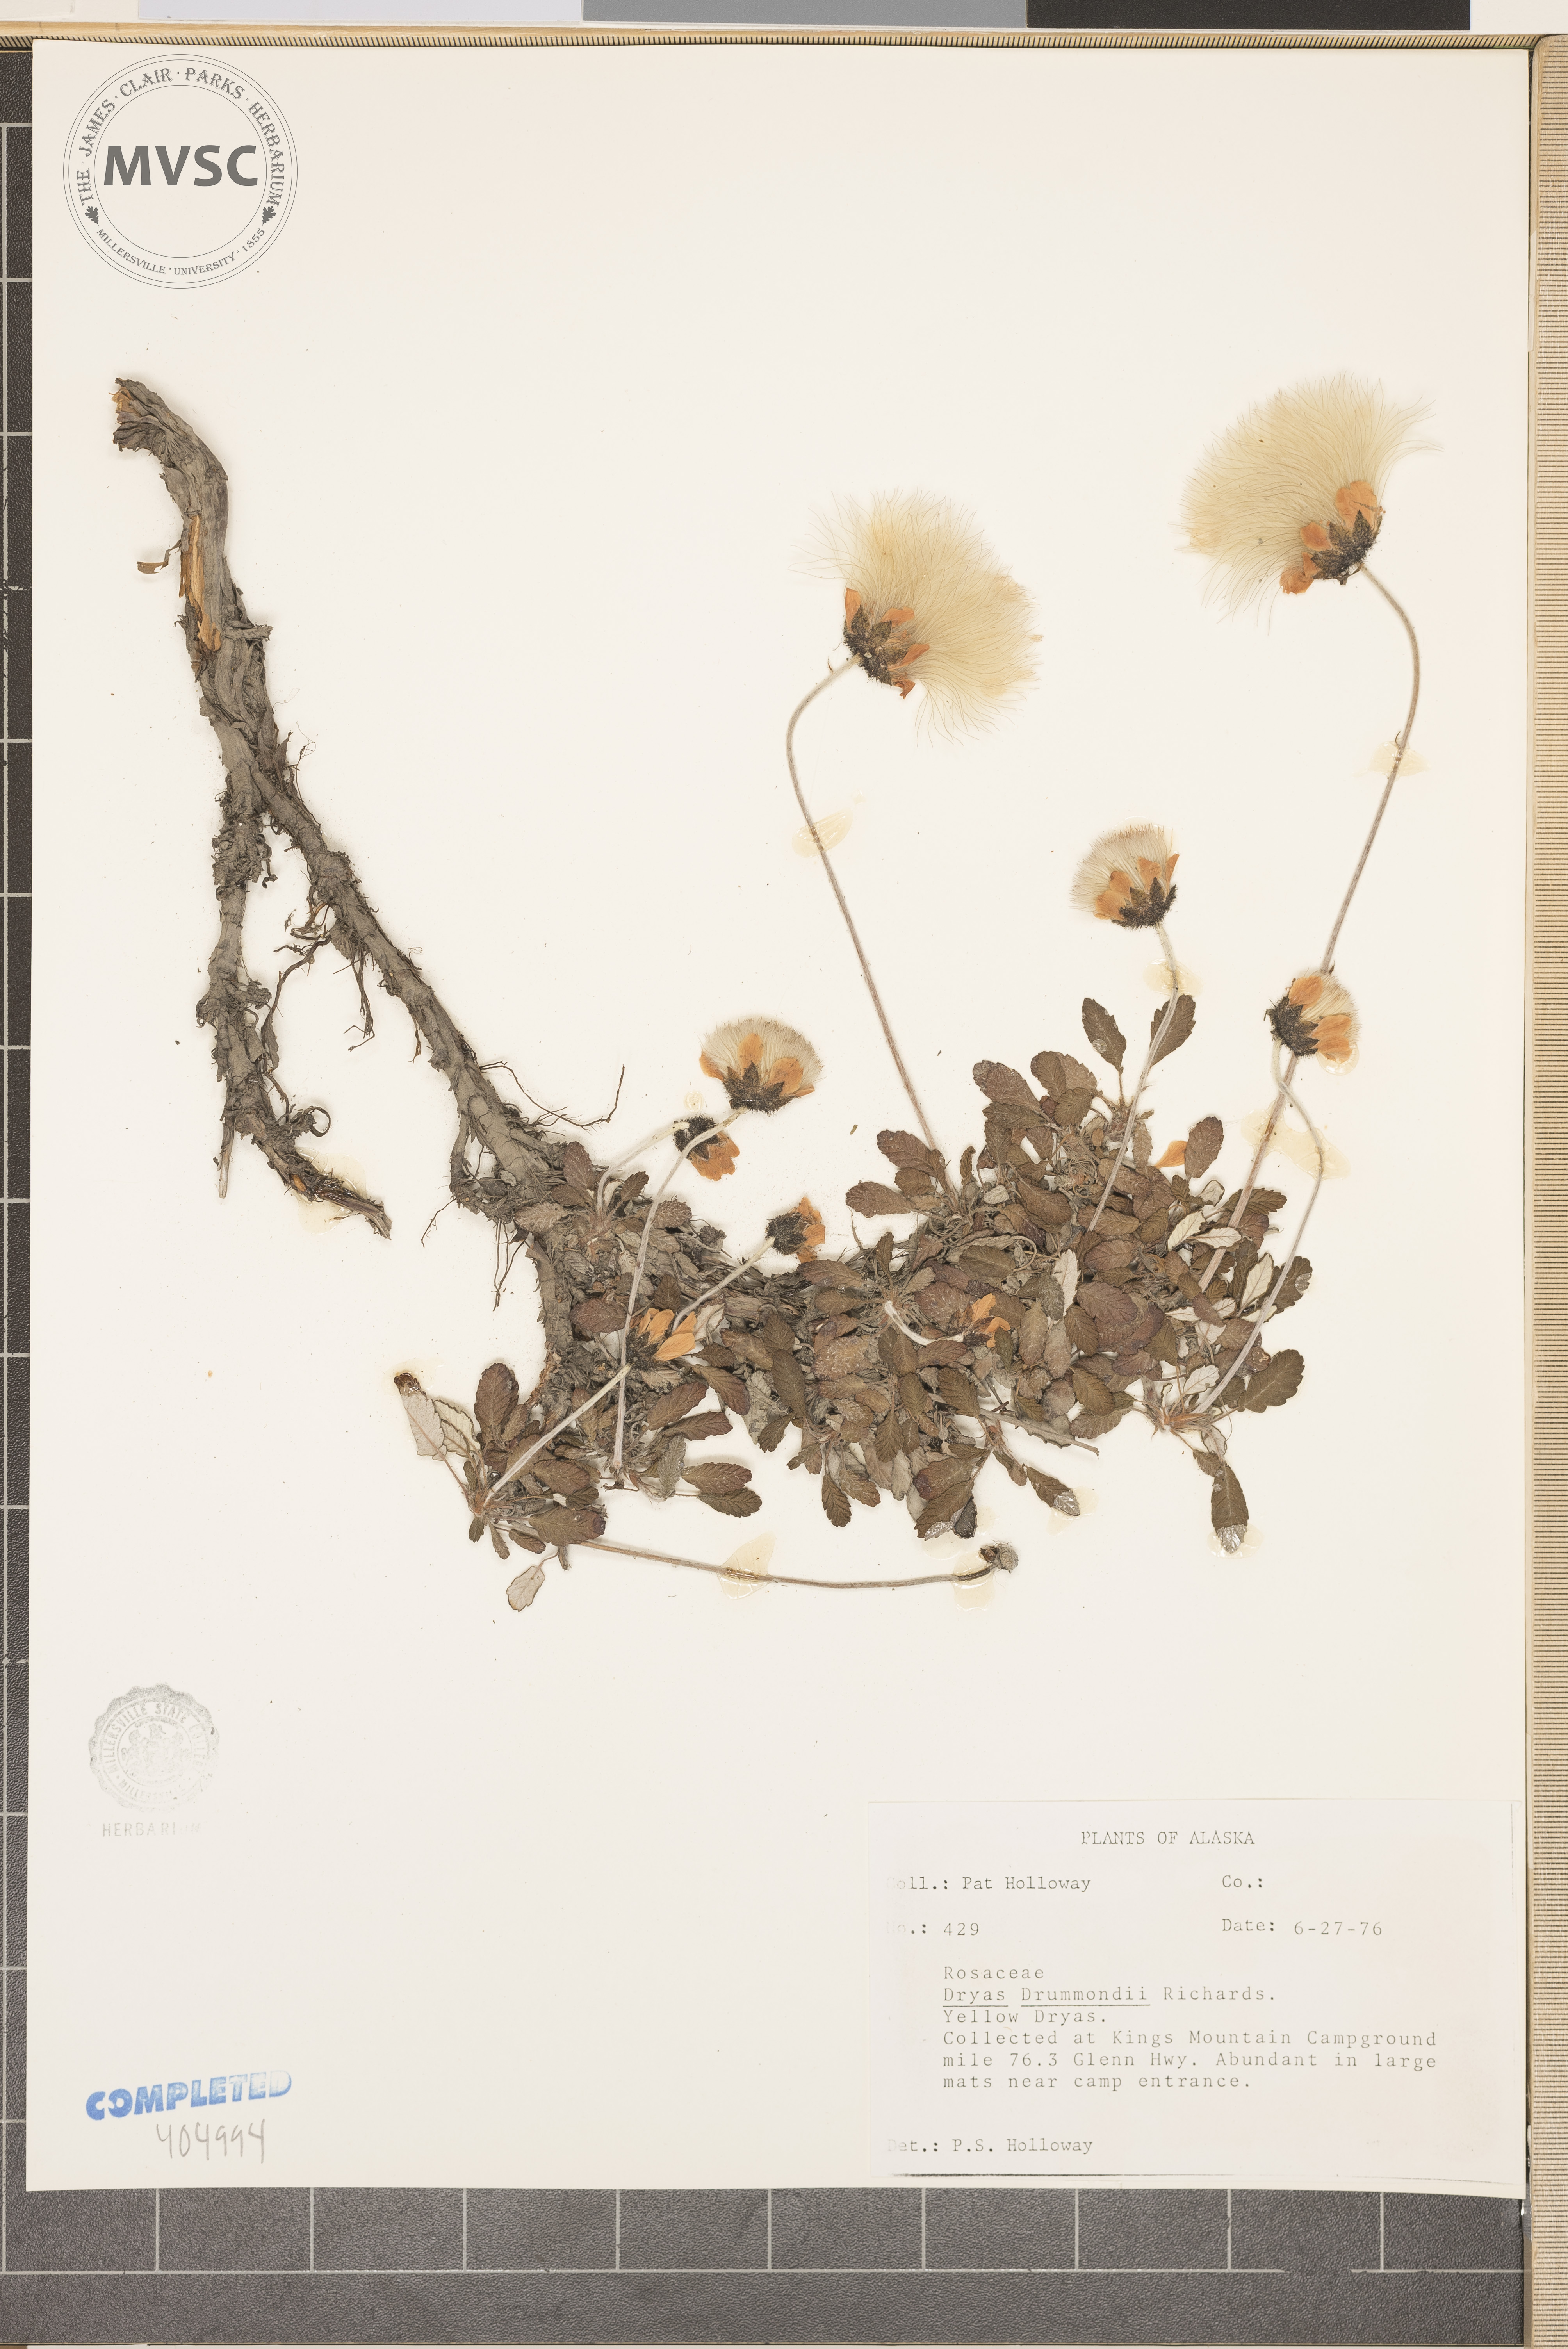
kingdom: Plantae
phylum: Tracheophyta
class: Magnoliopsida
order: Rosales
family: Rosaceae
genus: Dryas
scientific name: Dryas drummondii
